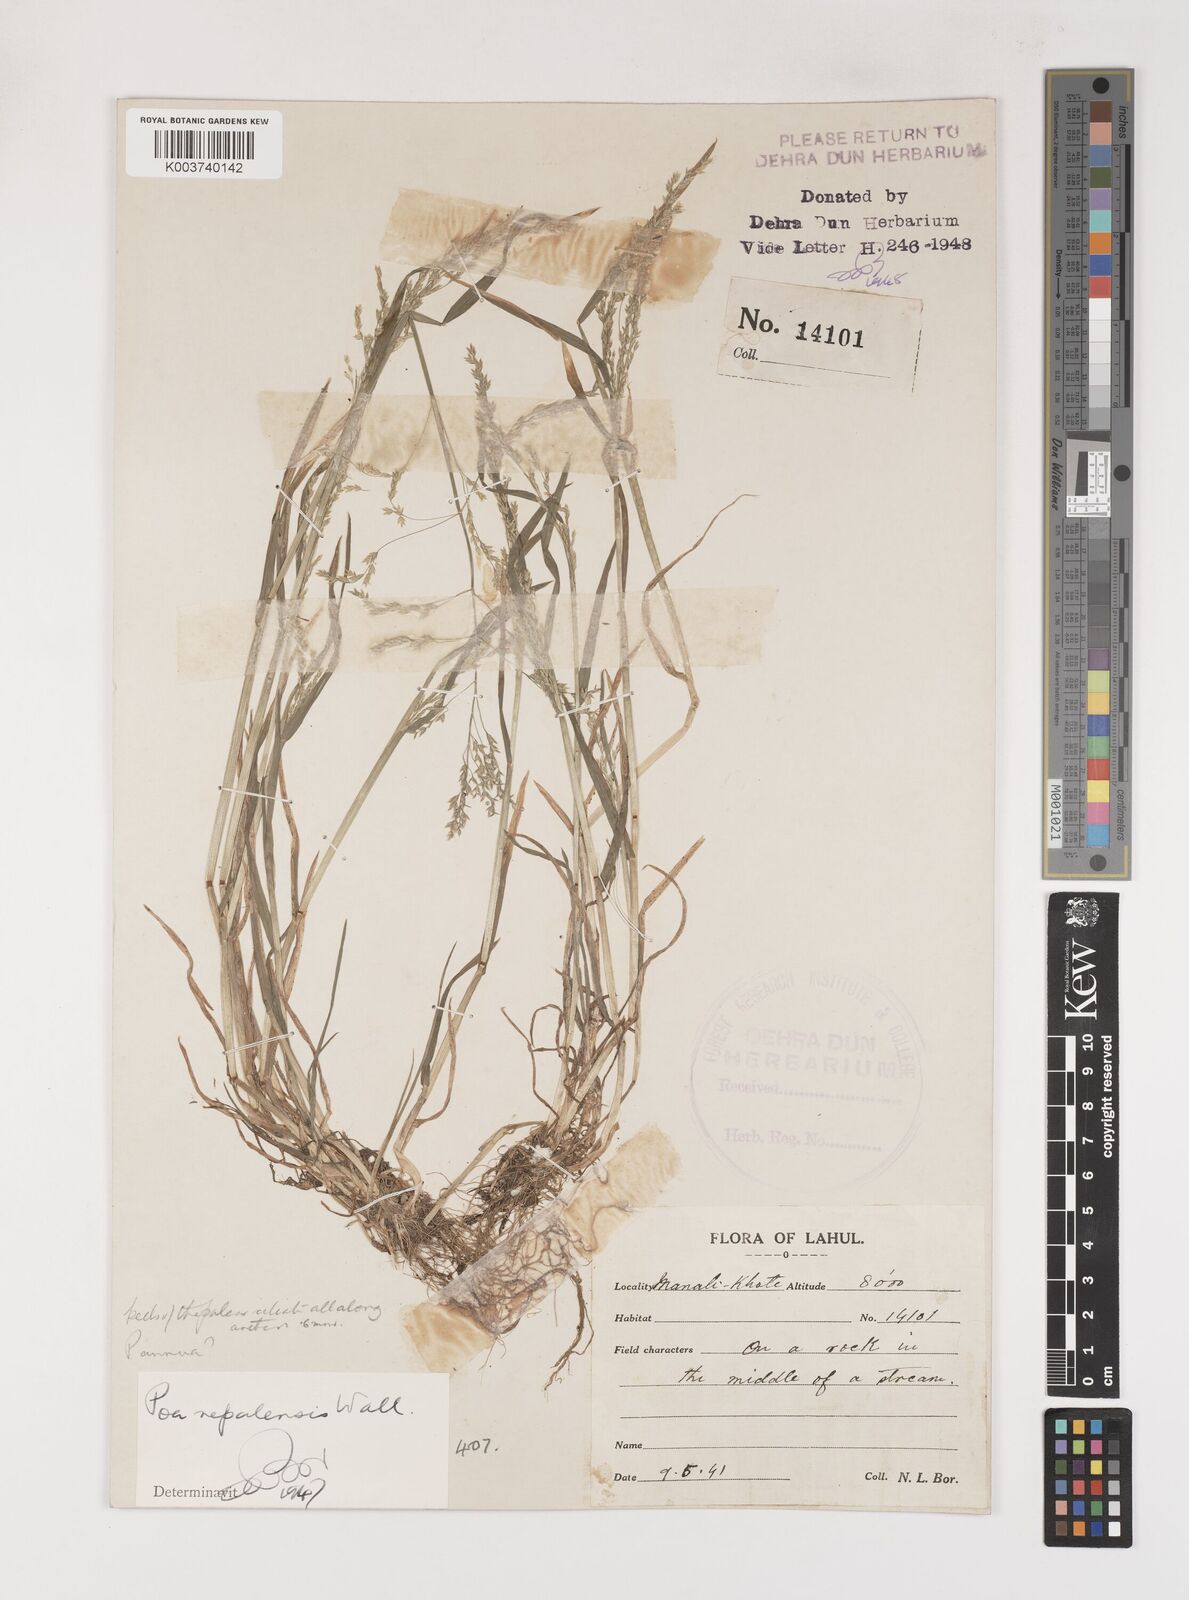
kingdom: Plantae
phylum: Tracheophyta
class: Liliopsida
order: Poales
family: Poaceae
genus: Poa
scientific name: Poa nepalensis
